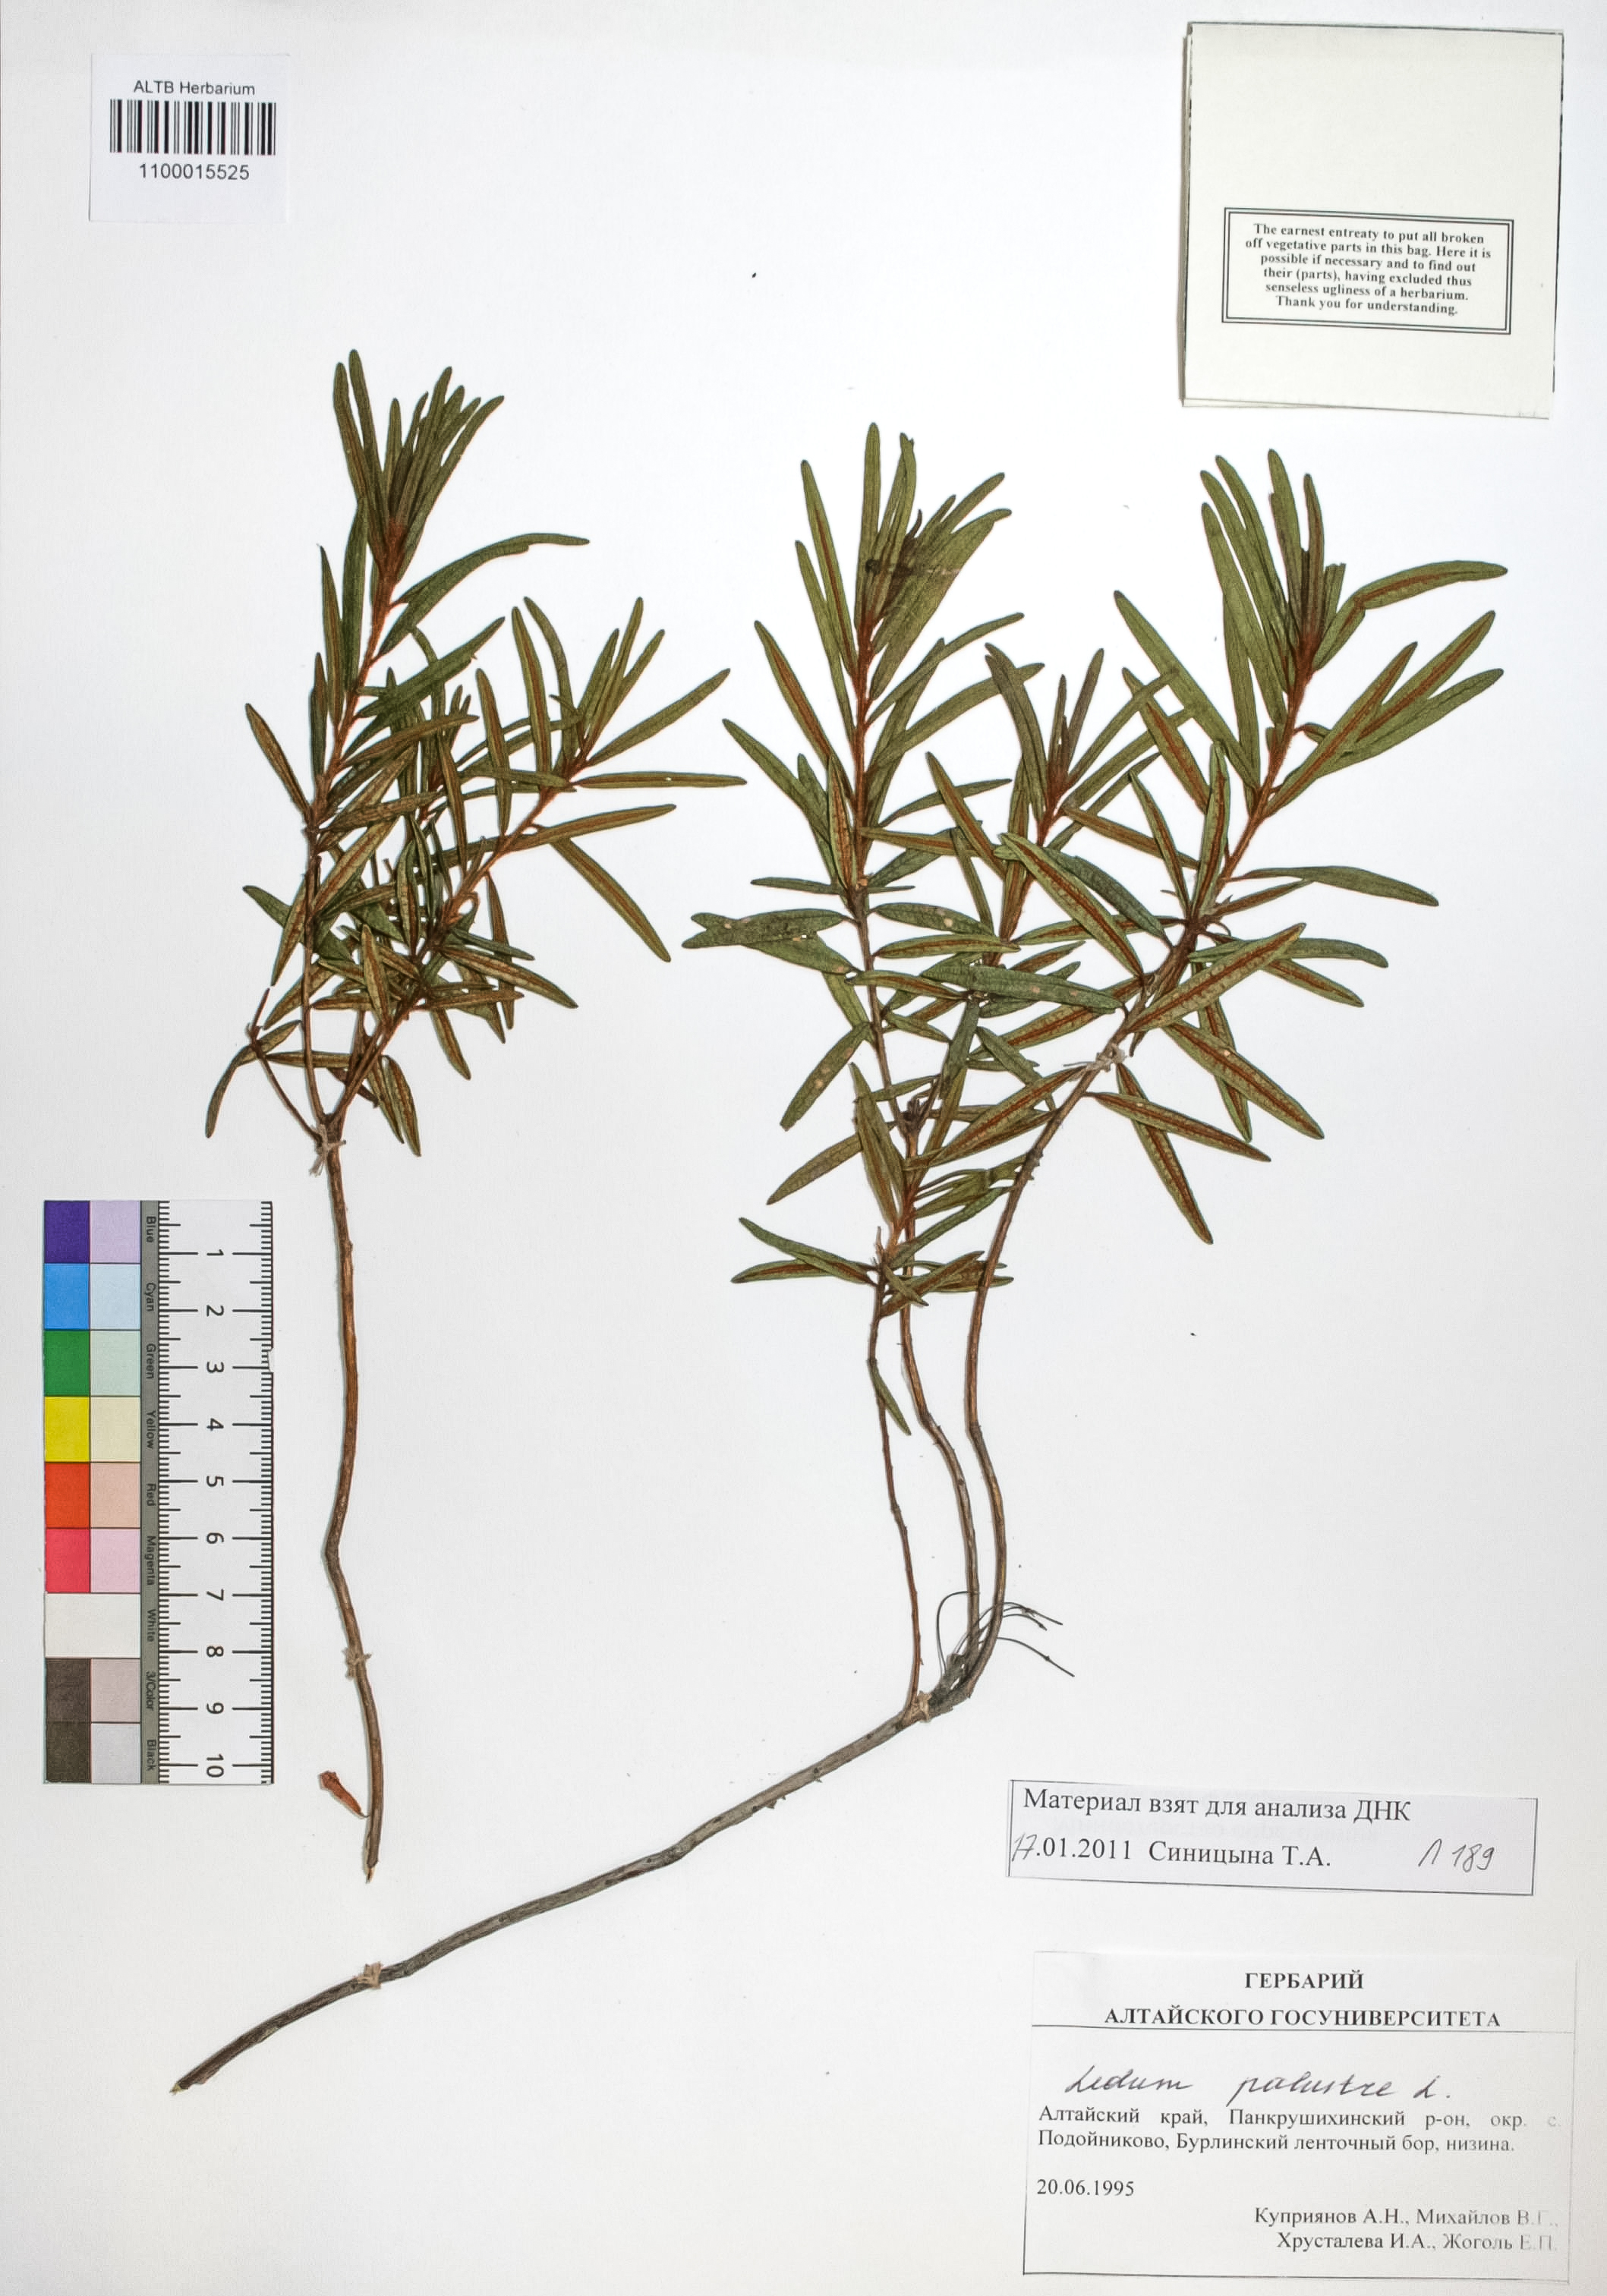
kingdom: Plantae
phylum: Tracheophyta
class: Magnoliopsida
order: Ericales
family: Ericaceae
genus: Rhododendron
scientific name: Rhododendron tomentosum
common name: Marsh labrador tea
